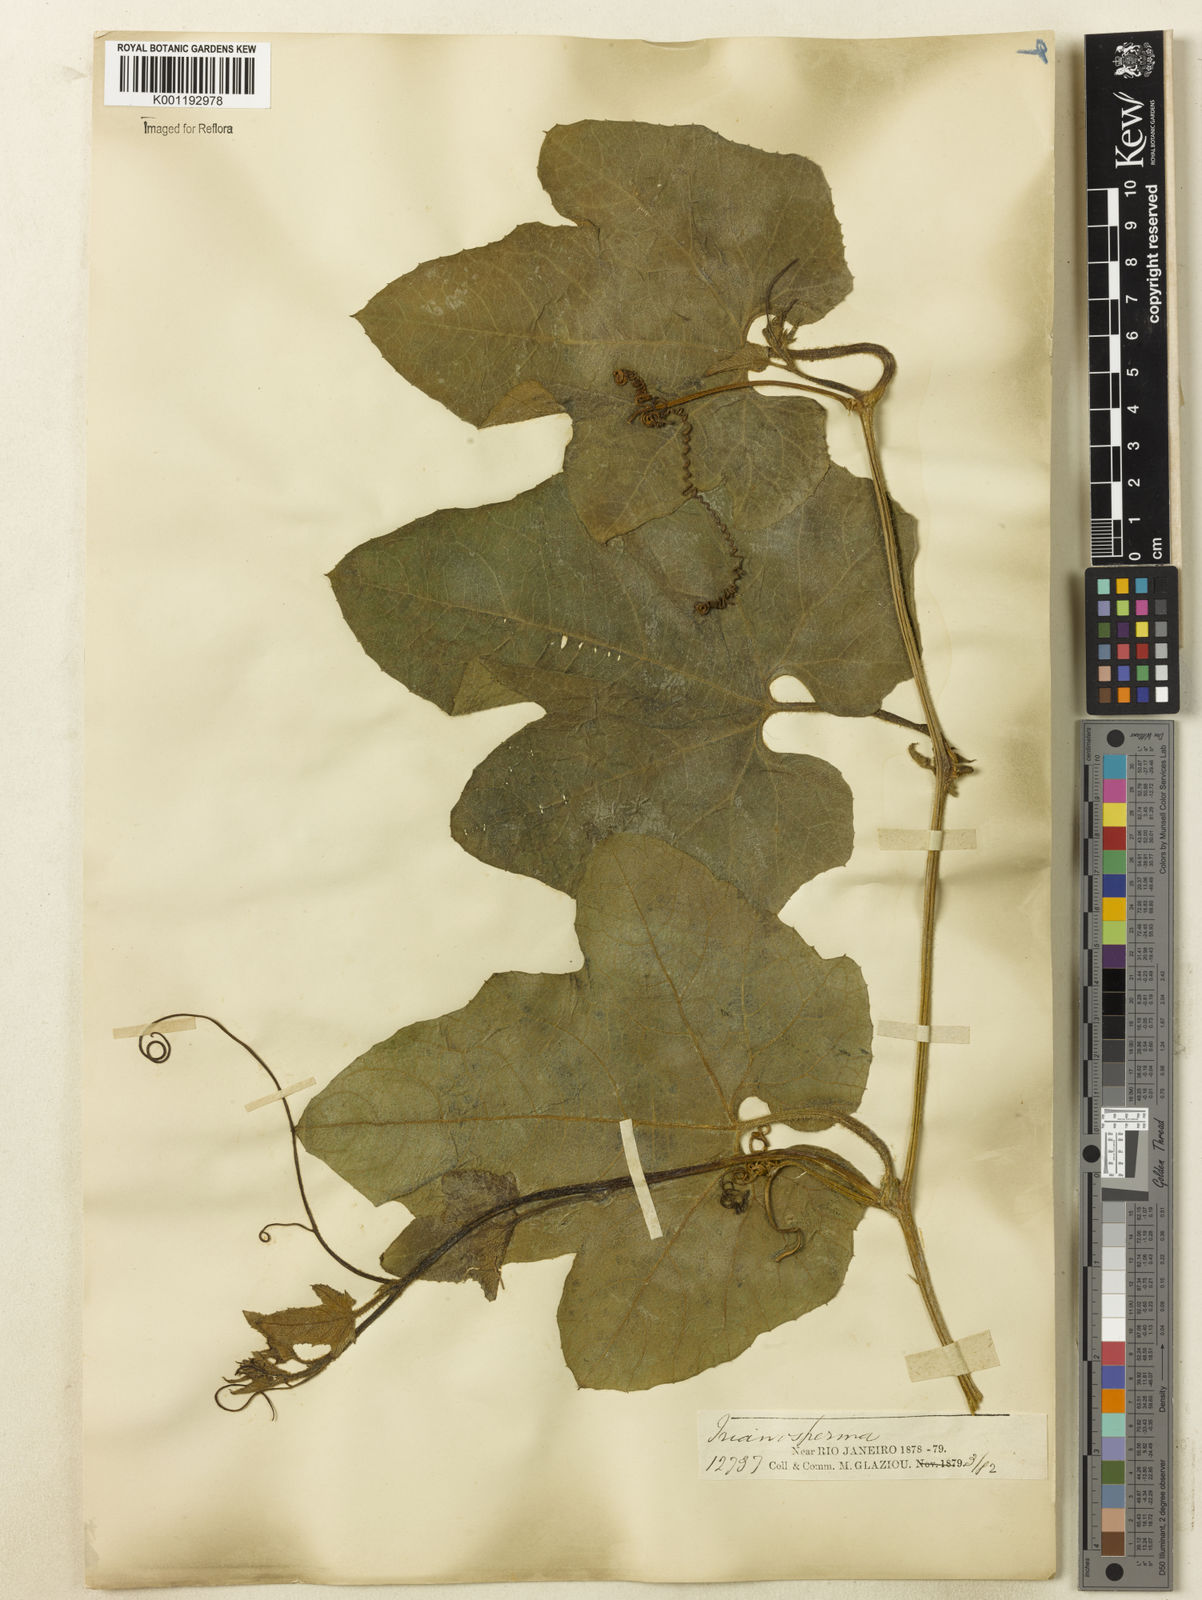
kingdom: Plantae
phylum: Tracheophyta
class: Magnoliopsida
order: Cucurbitales
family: Cucurbitaceae
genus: Cayaponia
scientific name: Cayaponia floribunda
